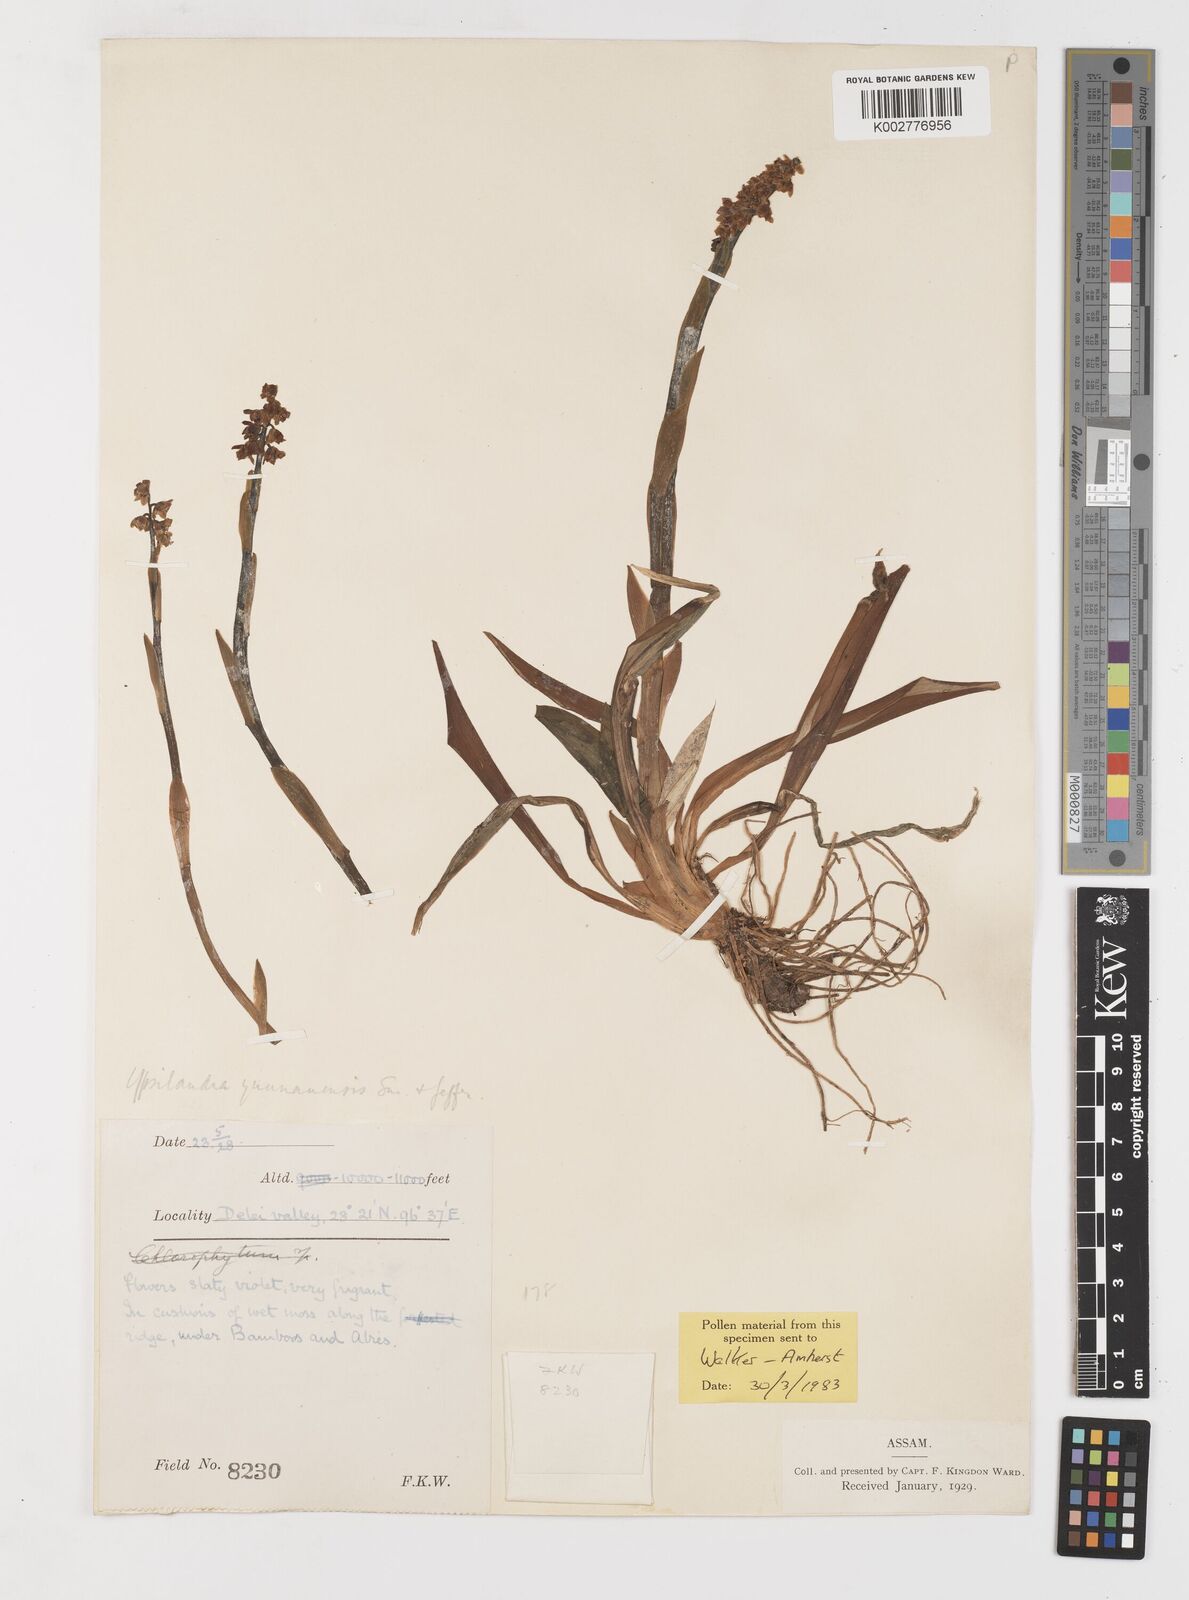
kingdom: Plantae
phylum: Tracheophyta
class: Liliopsida
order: Liliales
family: Melanthiaceae
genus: Helonias
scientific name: Helonias yunnanensis
